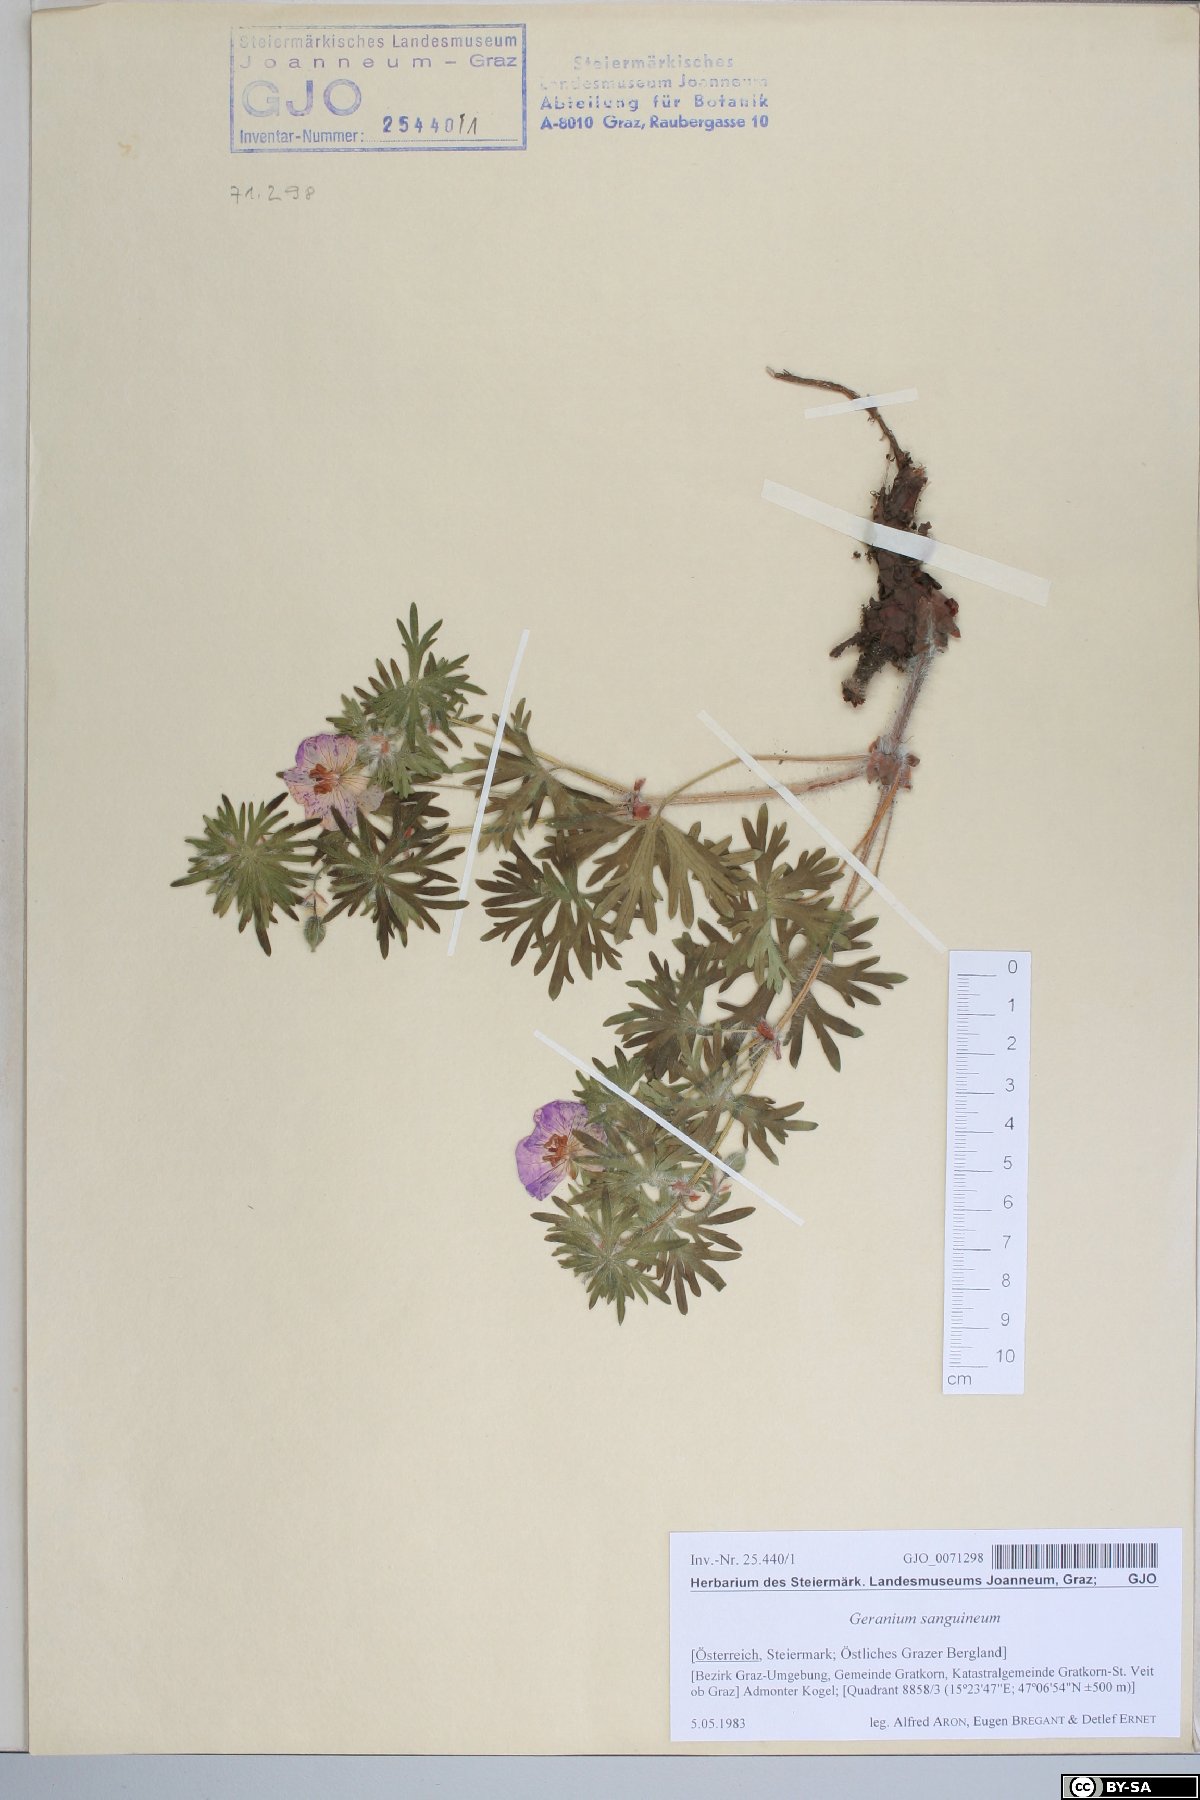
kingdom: Plantae
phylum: Tracheophyta
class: Magnoliopsida
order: Geraniales
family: Geraniaceae
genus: Geranium
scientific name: Geranium sanguineum
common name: Bloody crane's-bill
